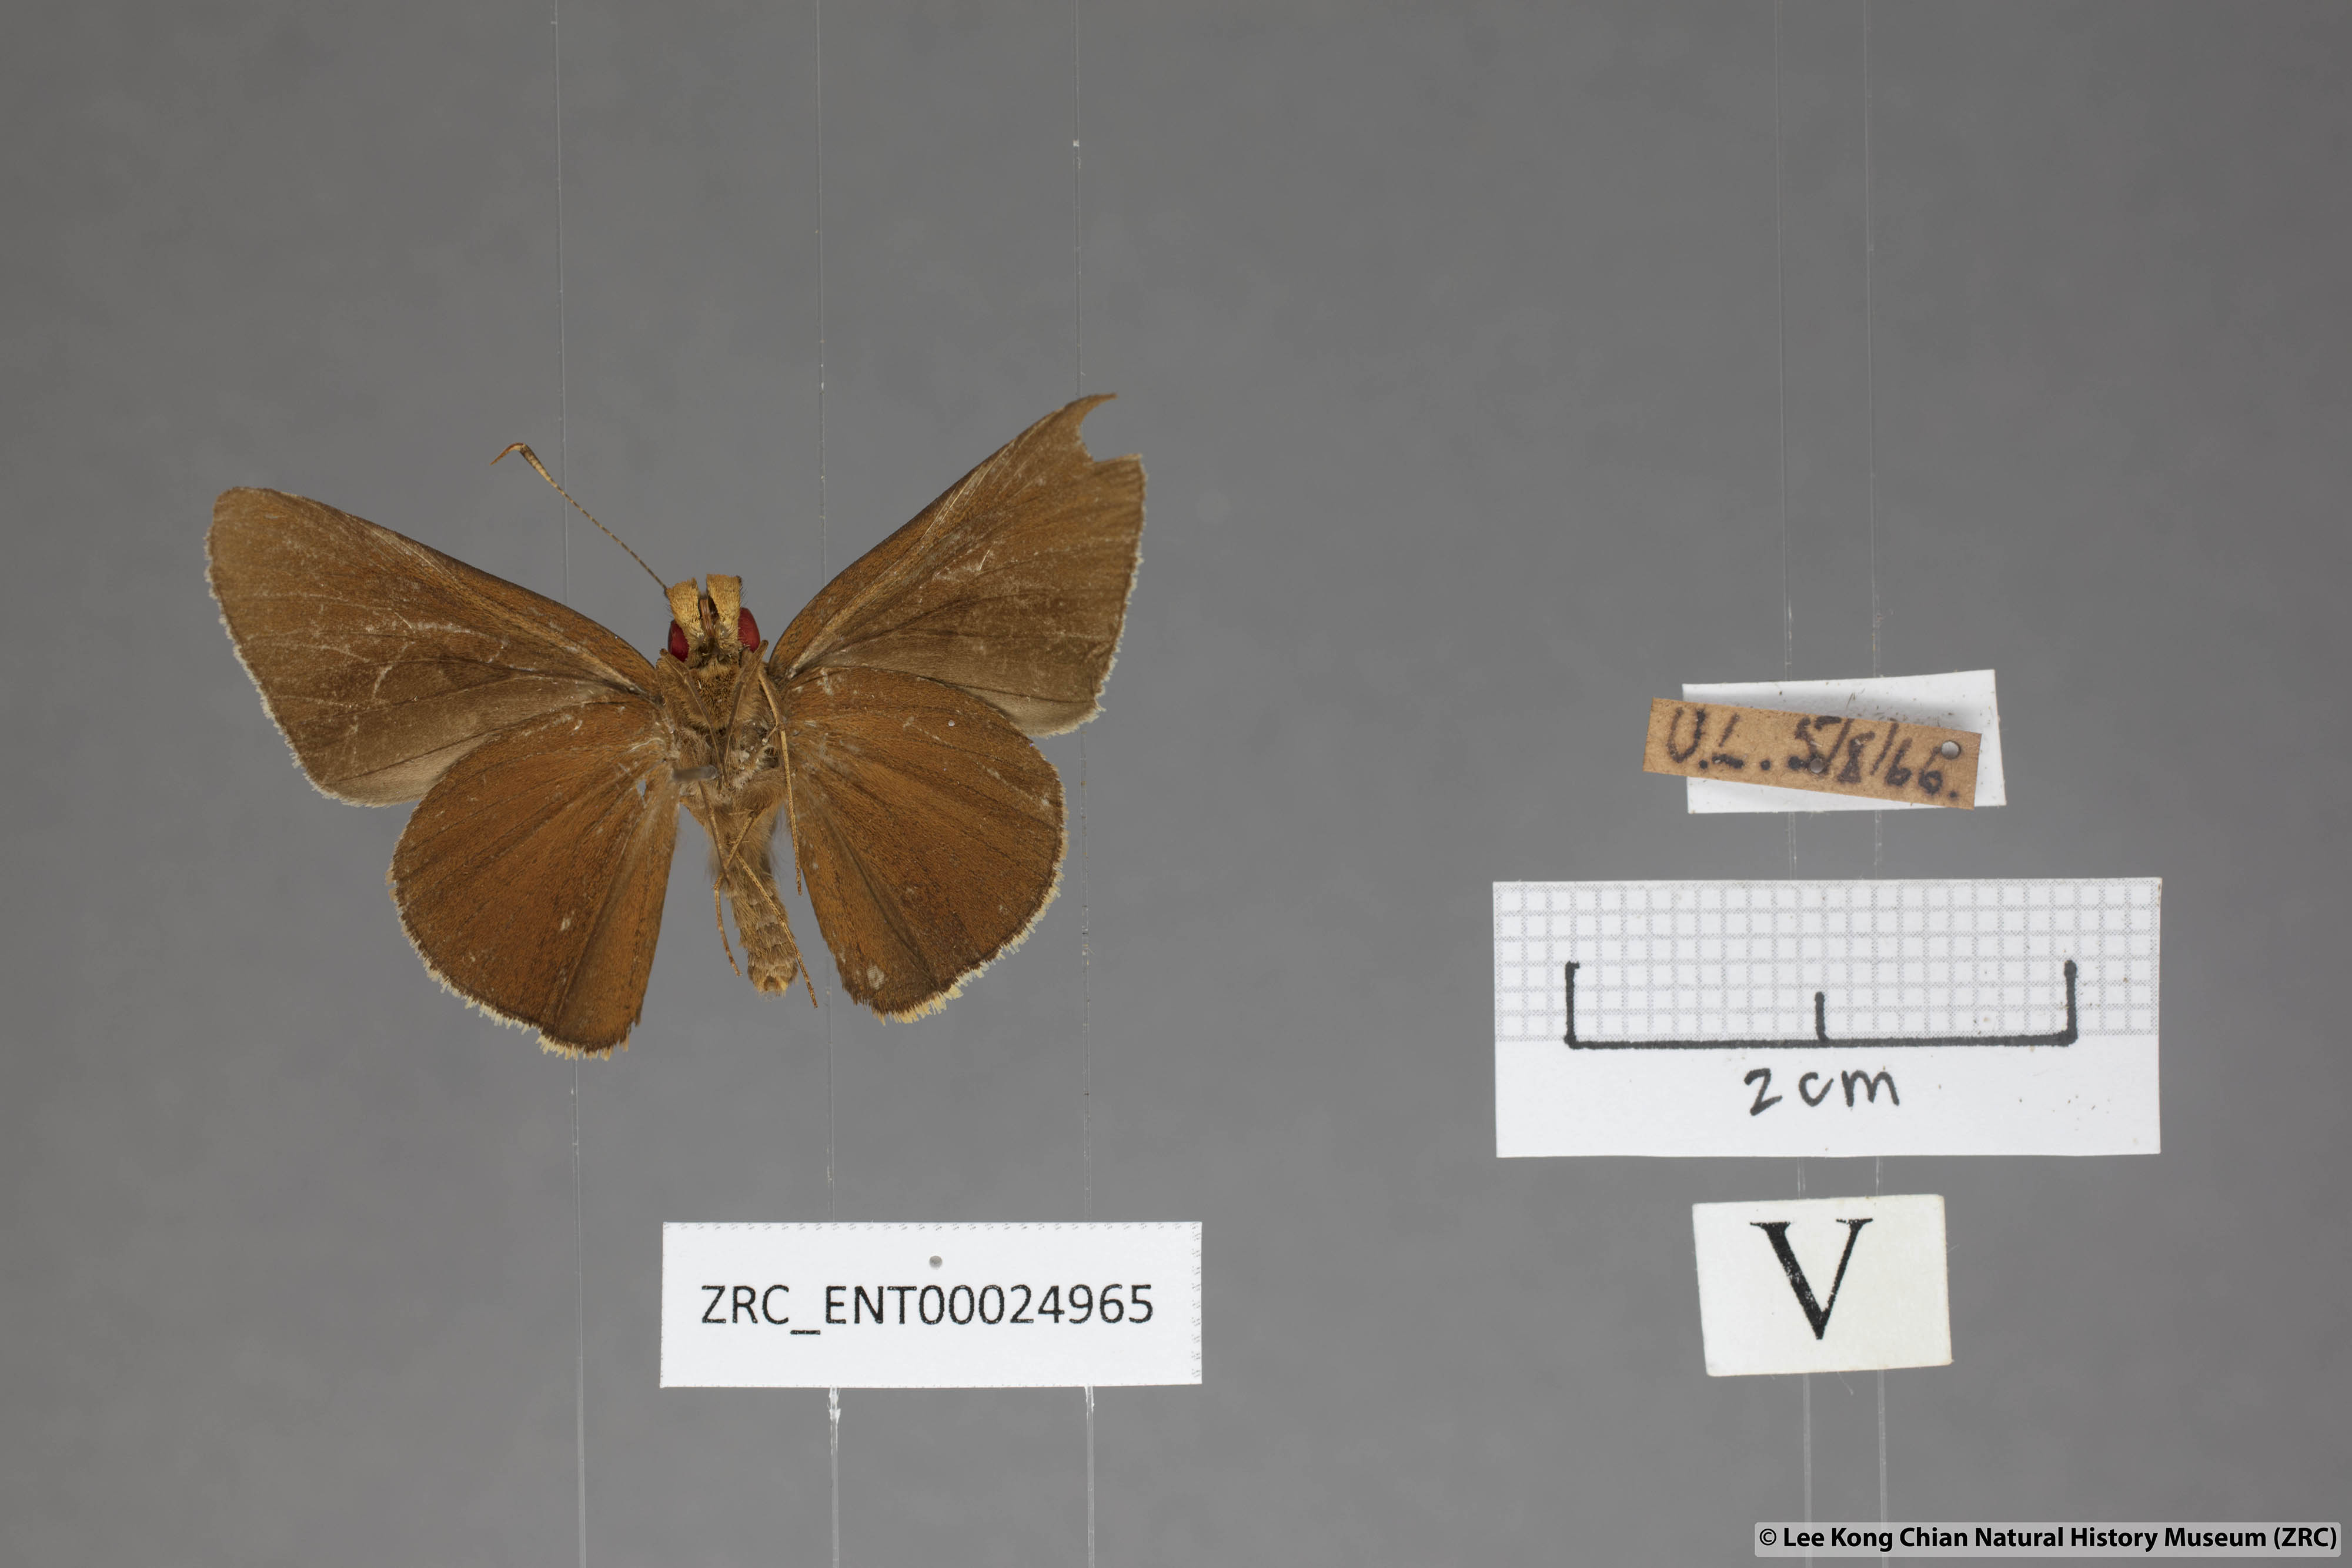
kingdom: Animalia
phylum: Arthropoda
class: Insecta
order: Lepidoptera
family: Hesperiidae
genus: Matapa
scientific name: Matapa aria
